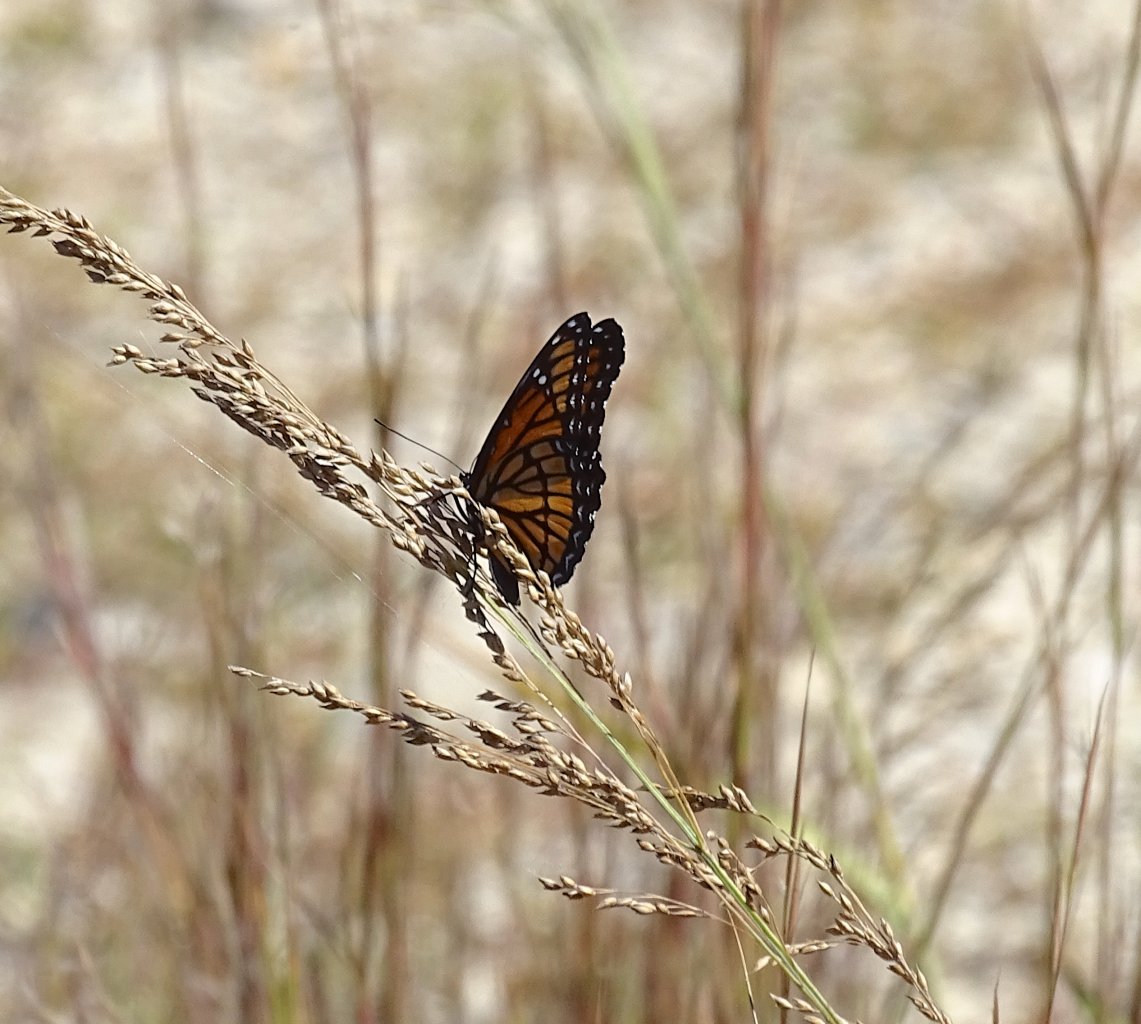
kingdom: Animalia
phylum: Arthropoda
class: Insecta
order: Lepidoptera
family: Nymphalidae
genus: Limenitis
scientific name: Limenitis archippus
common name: Viceroy
